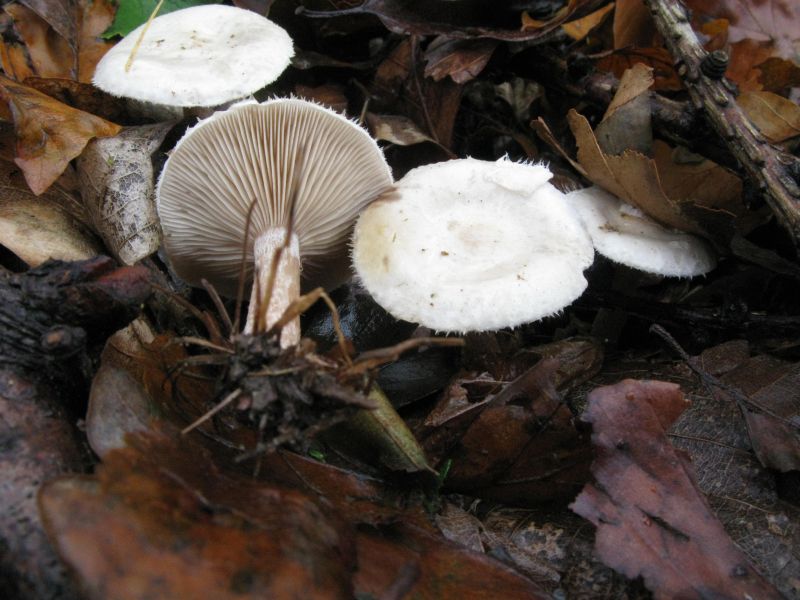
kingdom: Fungi
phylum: Basidiomycota
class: Agaricomycetes
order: Agaricales
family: Tricholomataceae
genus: Ripartites
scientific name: Ripartites tricholoma
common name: almindelig skæghat
